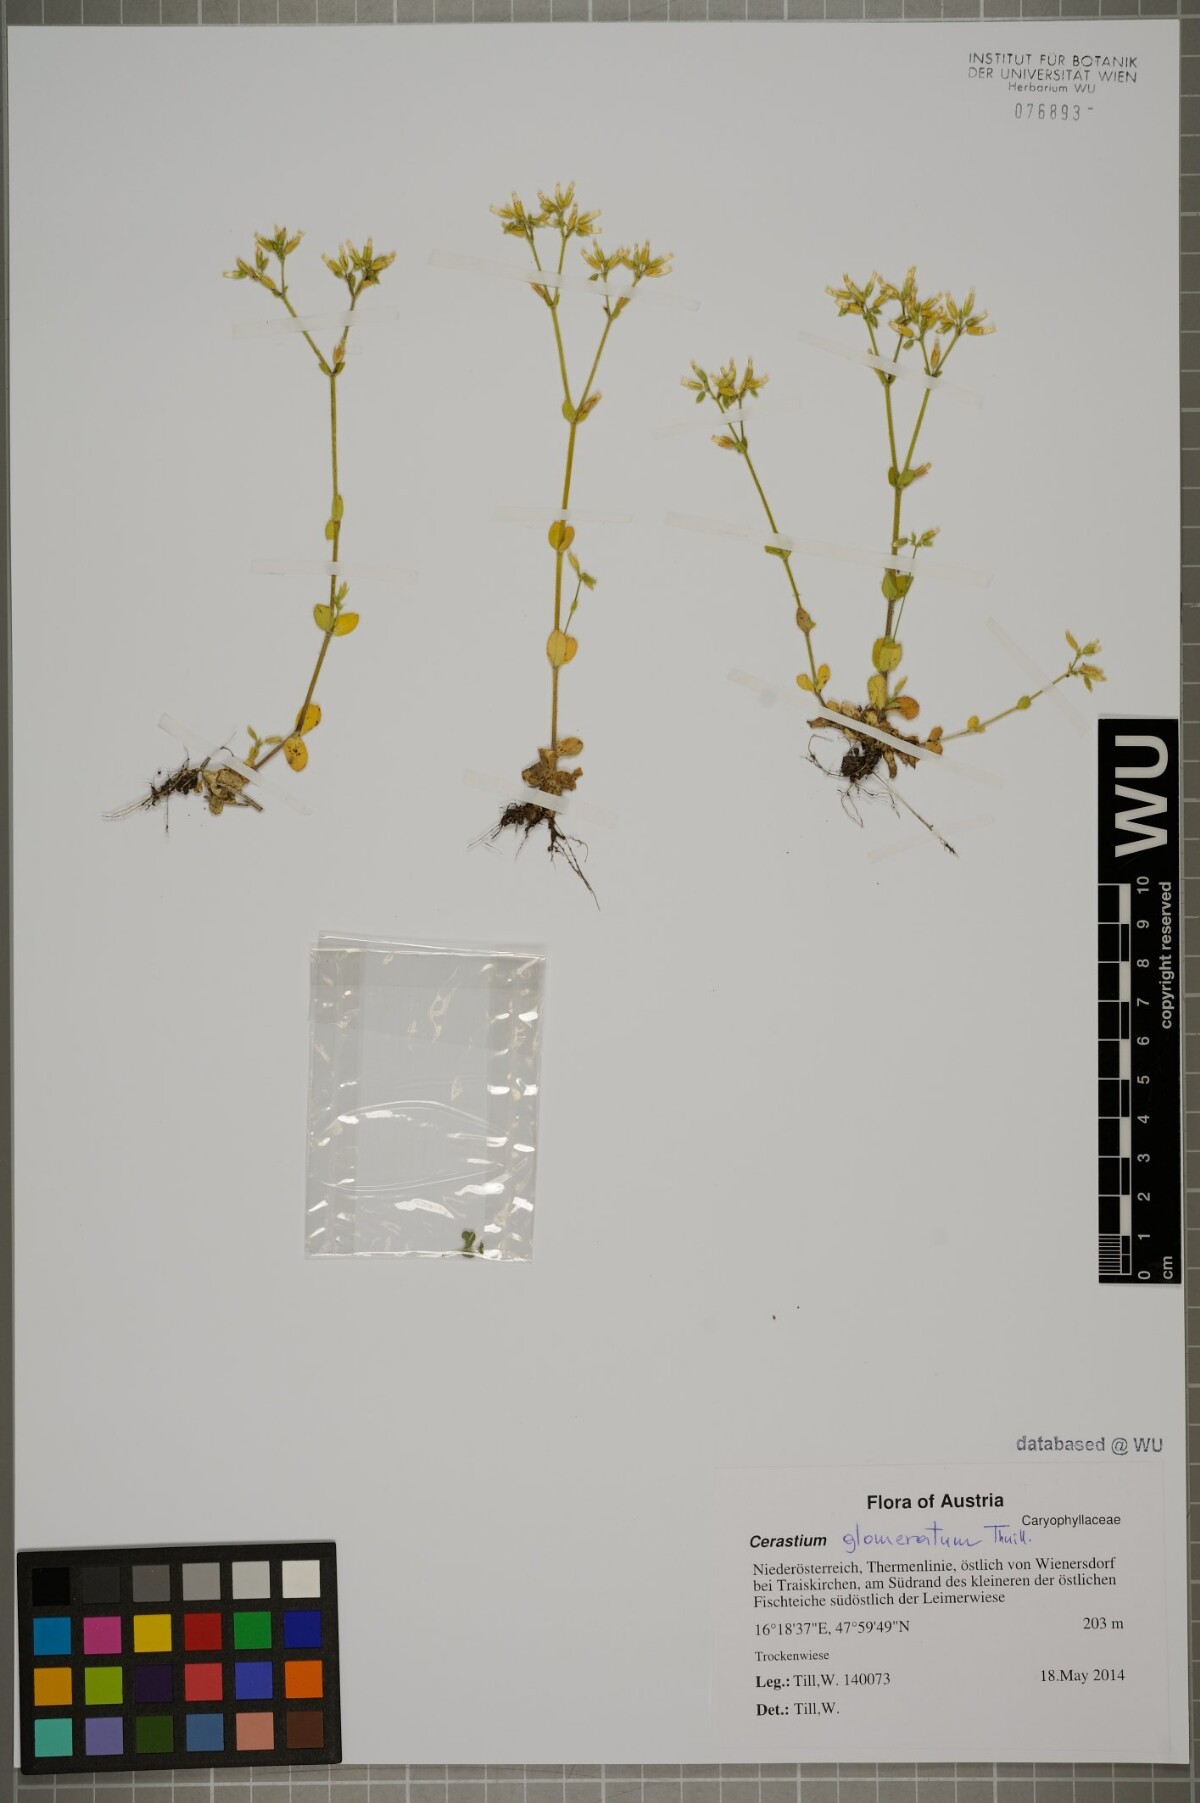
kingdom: Plantae
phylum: Tracheophyta
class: Magnoliopsida
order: Caryophyllales
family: Caryophyllaceae
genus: Cerastium
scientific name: Cerastium glomeratum
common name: Sticky chickweed
